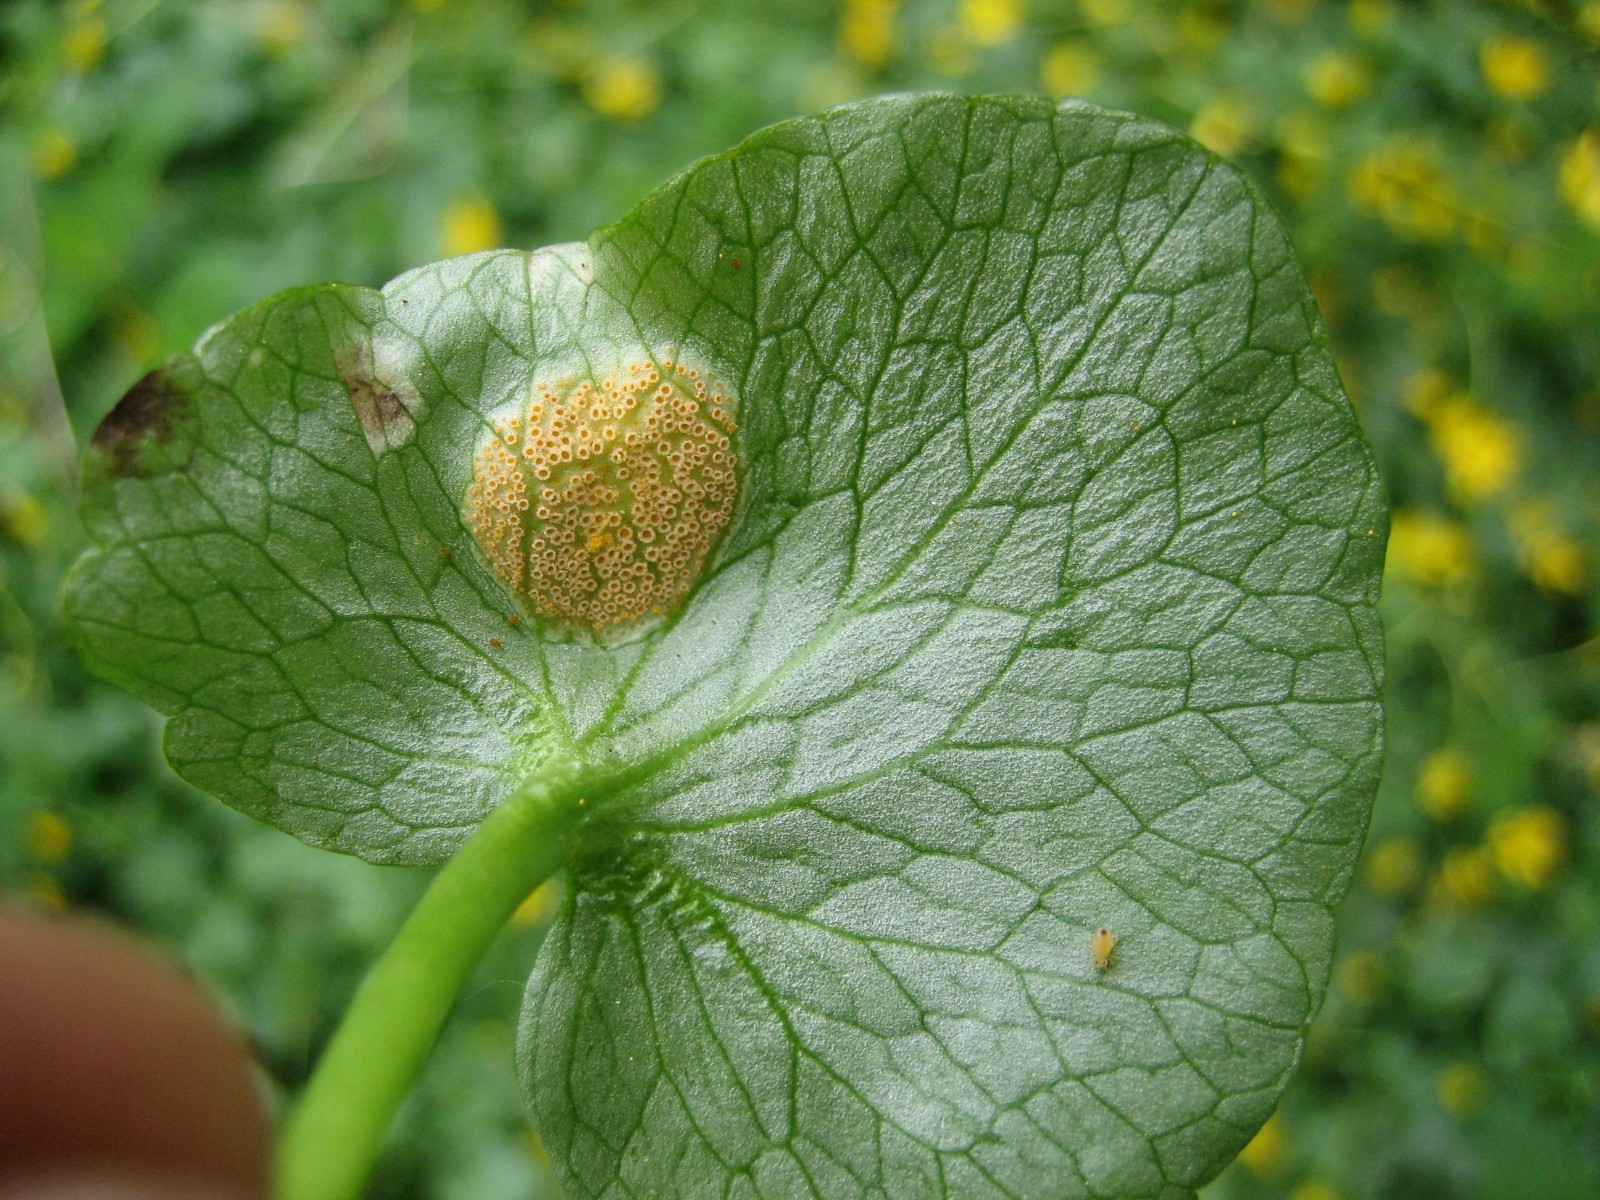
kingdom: Fungi
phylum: Basidiomycota
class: Pucciniomycetes
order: Pucciniales
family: Pucciniaceae
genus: Uromyces
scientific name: Uromyces dactylidis
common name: ranunkel-encellerust
